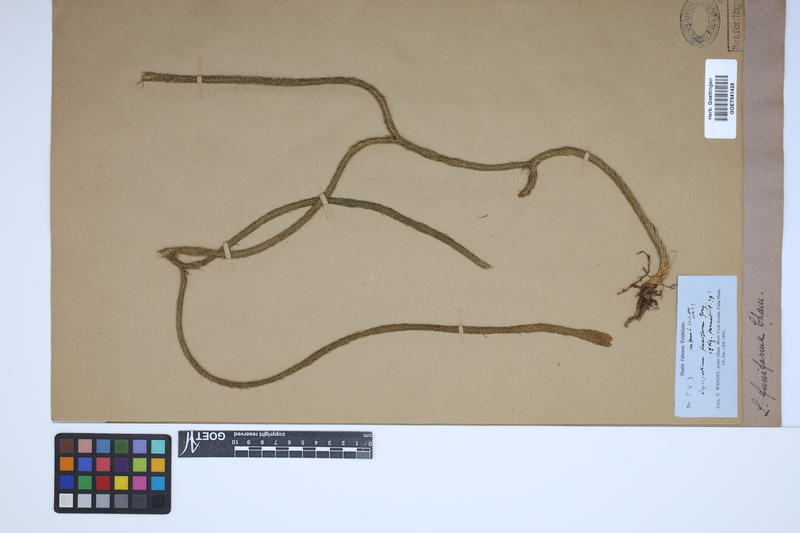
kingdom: Plantae
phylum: Tracheophyta
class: Lycopodiopsida
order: Lycopodiales
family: Lycopodiaceae
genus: Phlegmariurus
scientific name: Phlegmariurus funiformis
